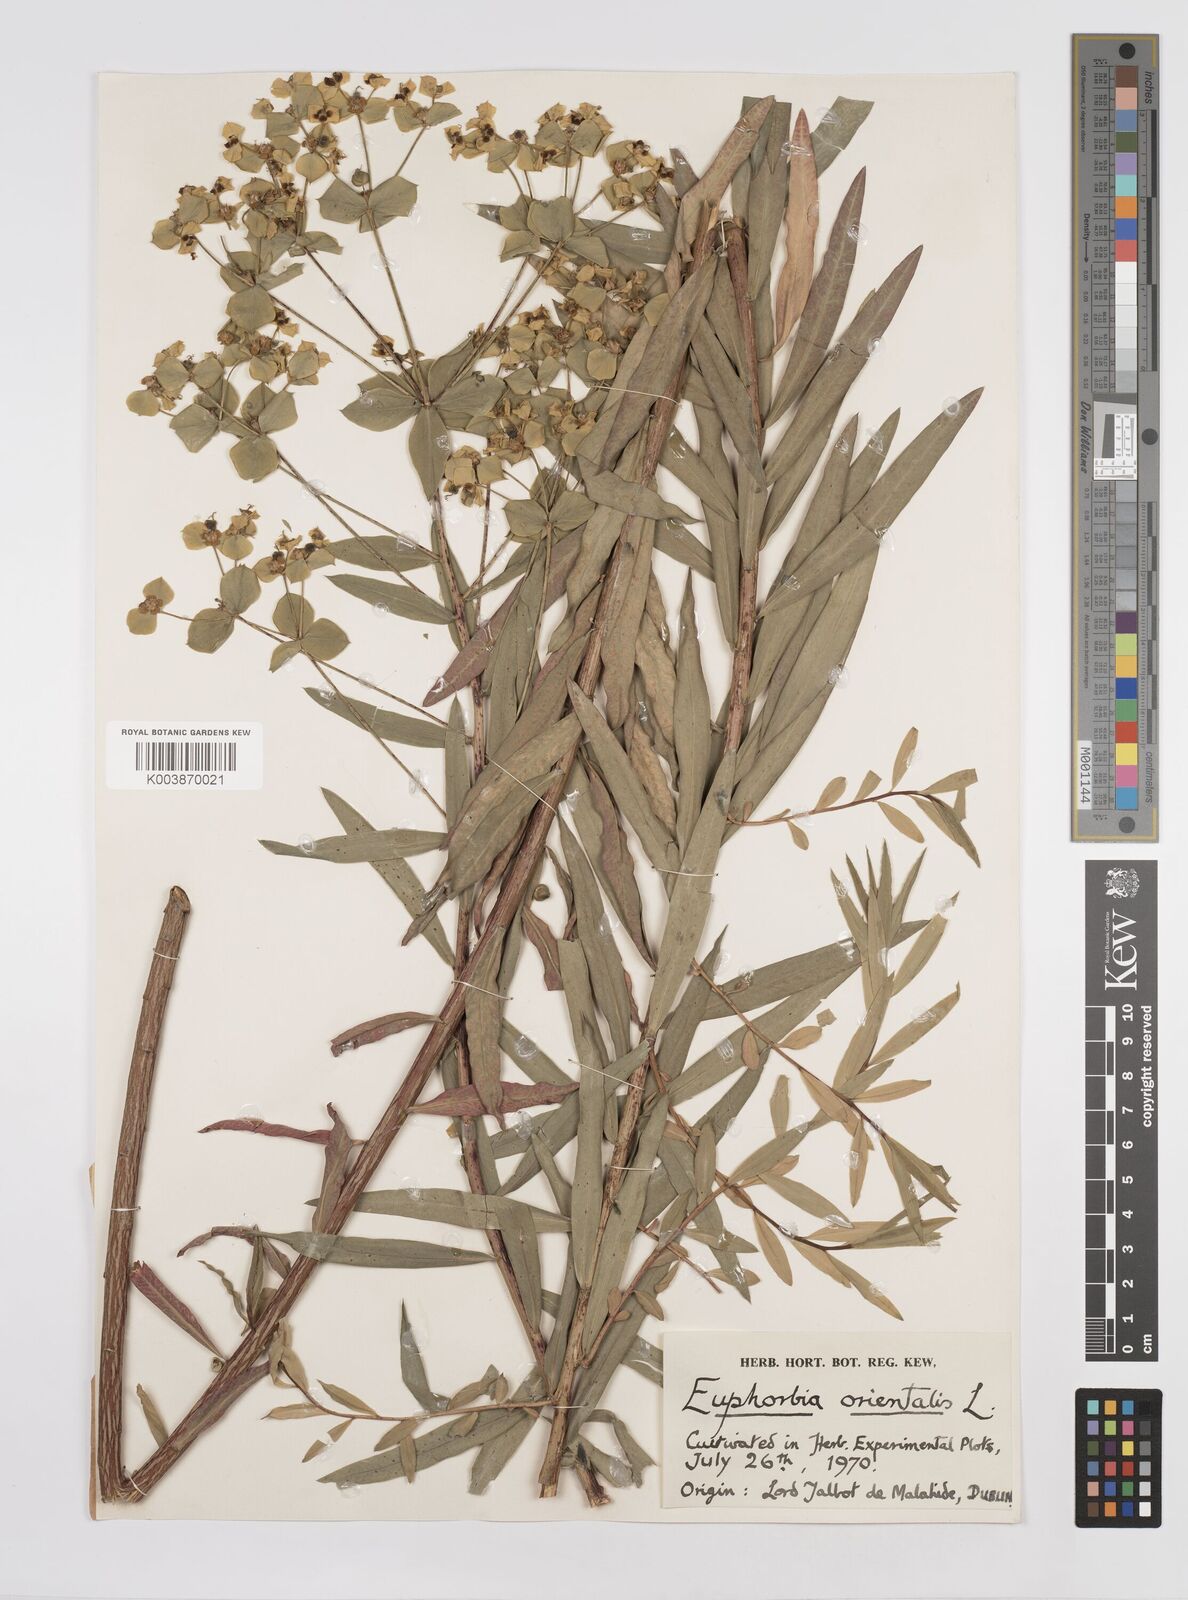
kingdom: Plantae
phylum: Tracheophyta
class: Magnoliopsida
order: Malpighiales
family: Euphorbiaceae
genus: Euphorbia
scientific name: Euphorbia orientalis
